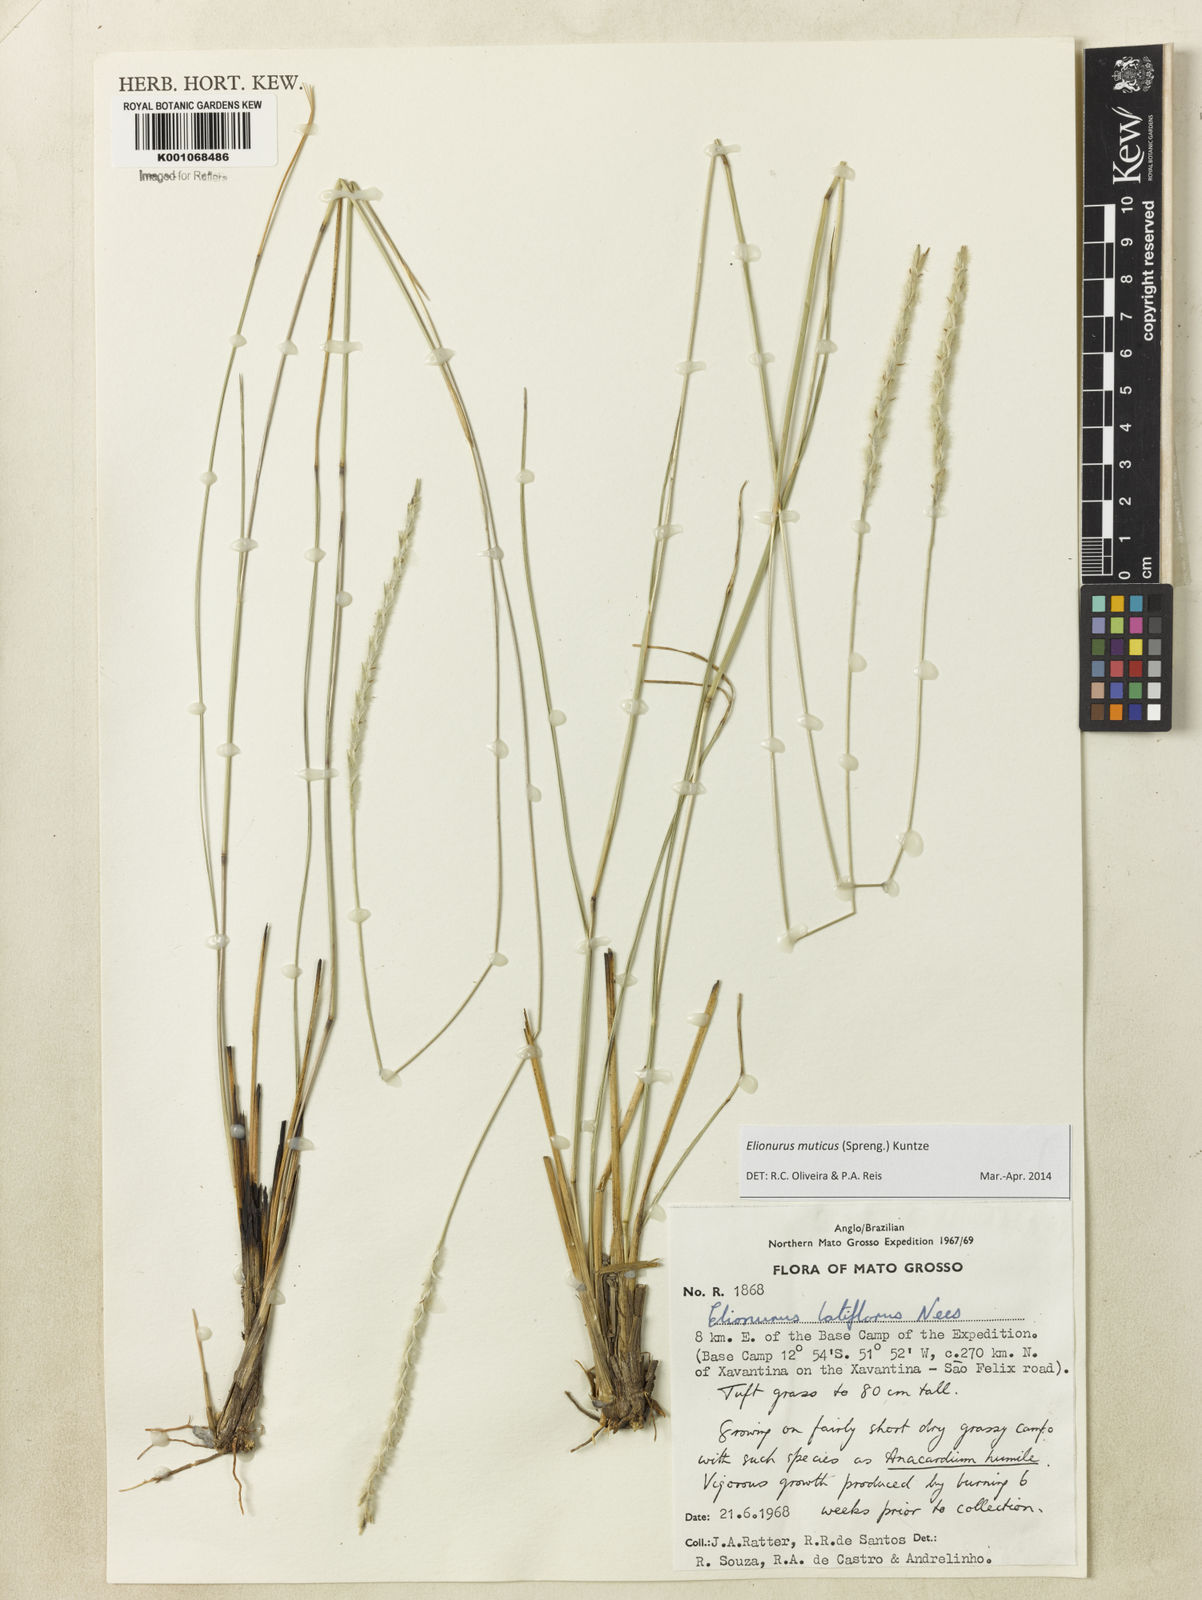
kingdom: Plantae
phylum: Tracheophyta
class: Liliopsida
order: Poales
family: Poaceae
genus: Elionurus
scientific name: Elionurus muticus
